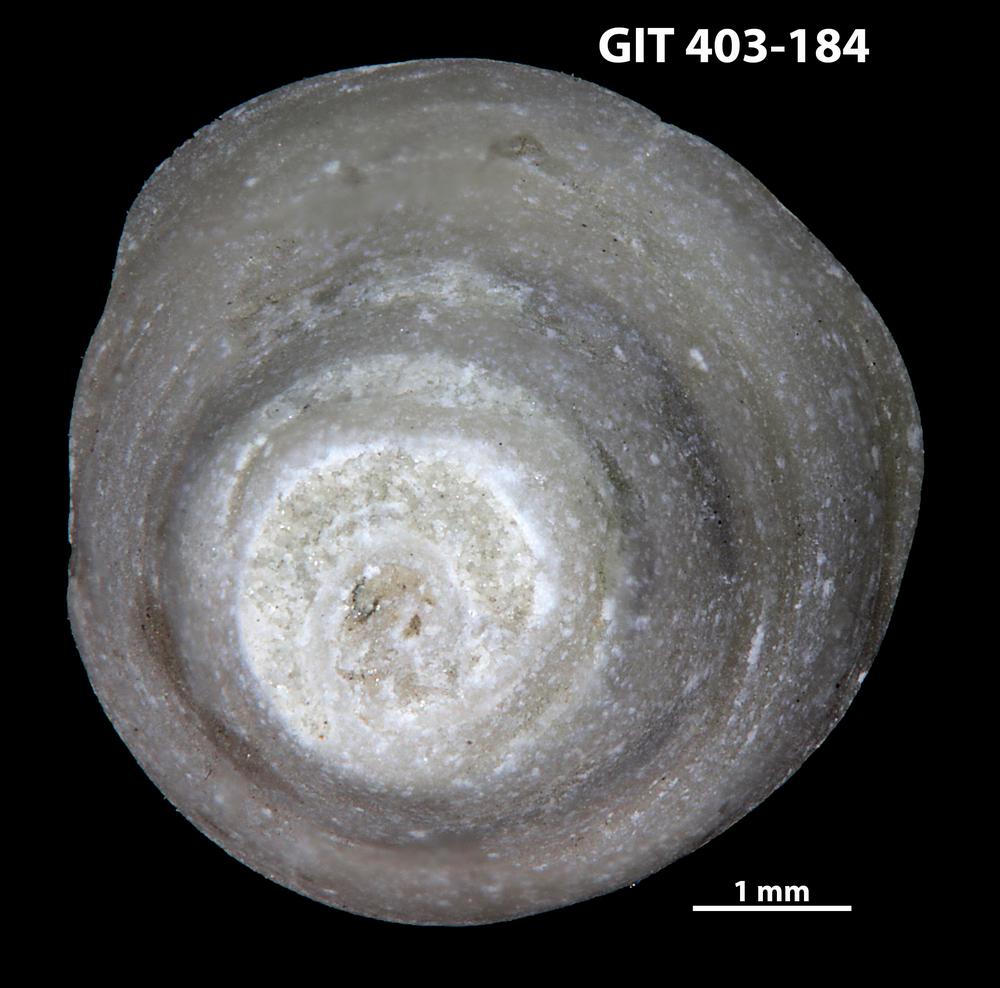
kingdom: Animalia
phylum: Mollusca
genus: Anticalyptraea
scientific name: Anticalyptraea westergaardi
